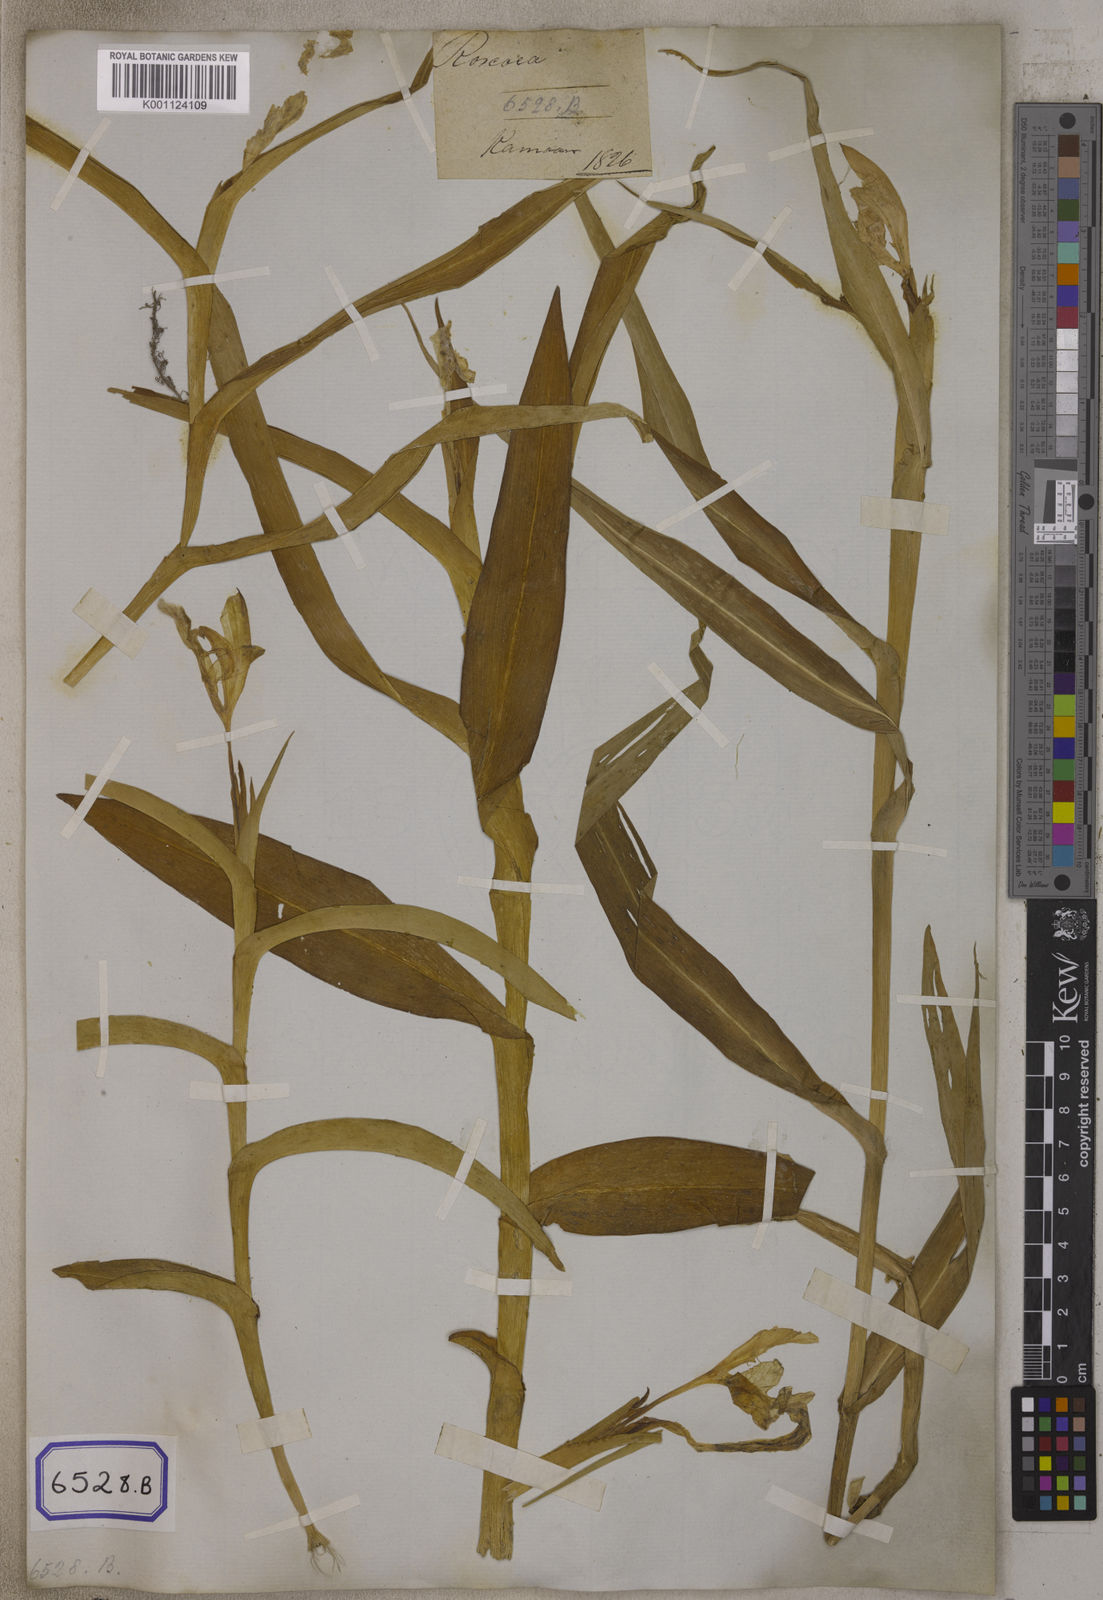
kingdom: Plantae
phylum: Tracheophyta
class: Liliopsida
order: Zingiberales
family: Zingiberaceae
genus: Roscoea
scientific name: Roscoea purpurea
